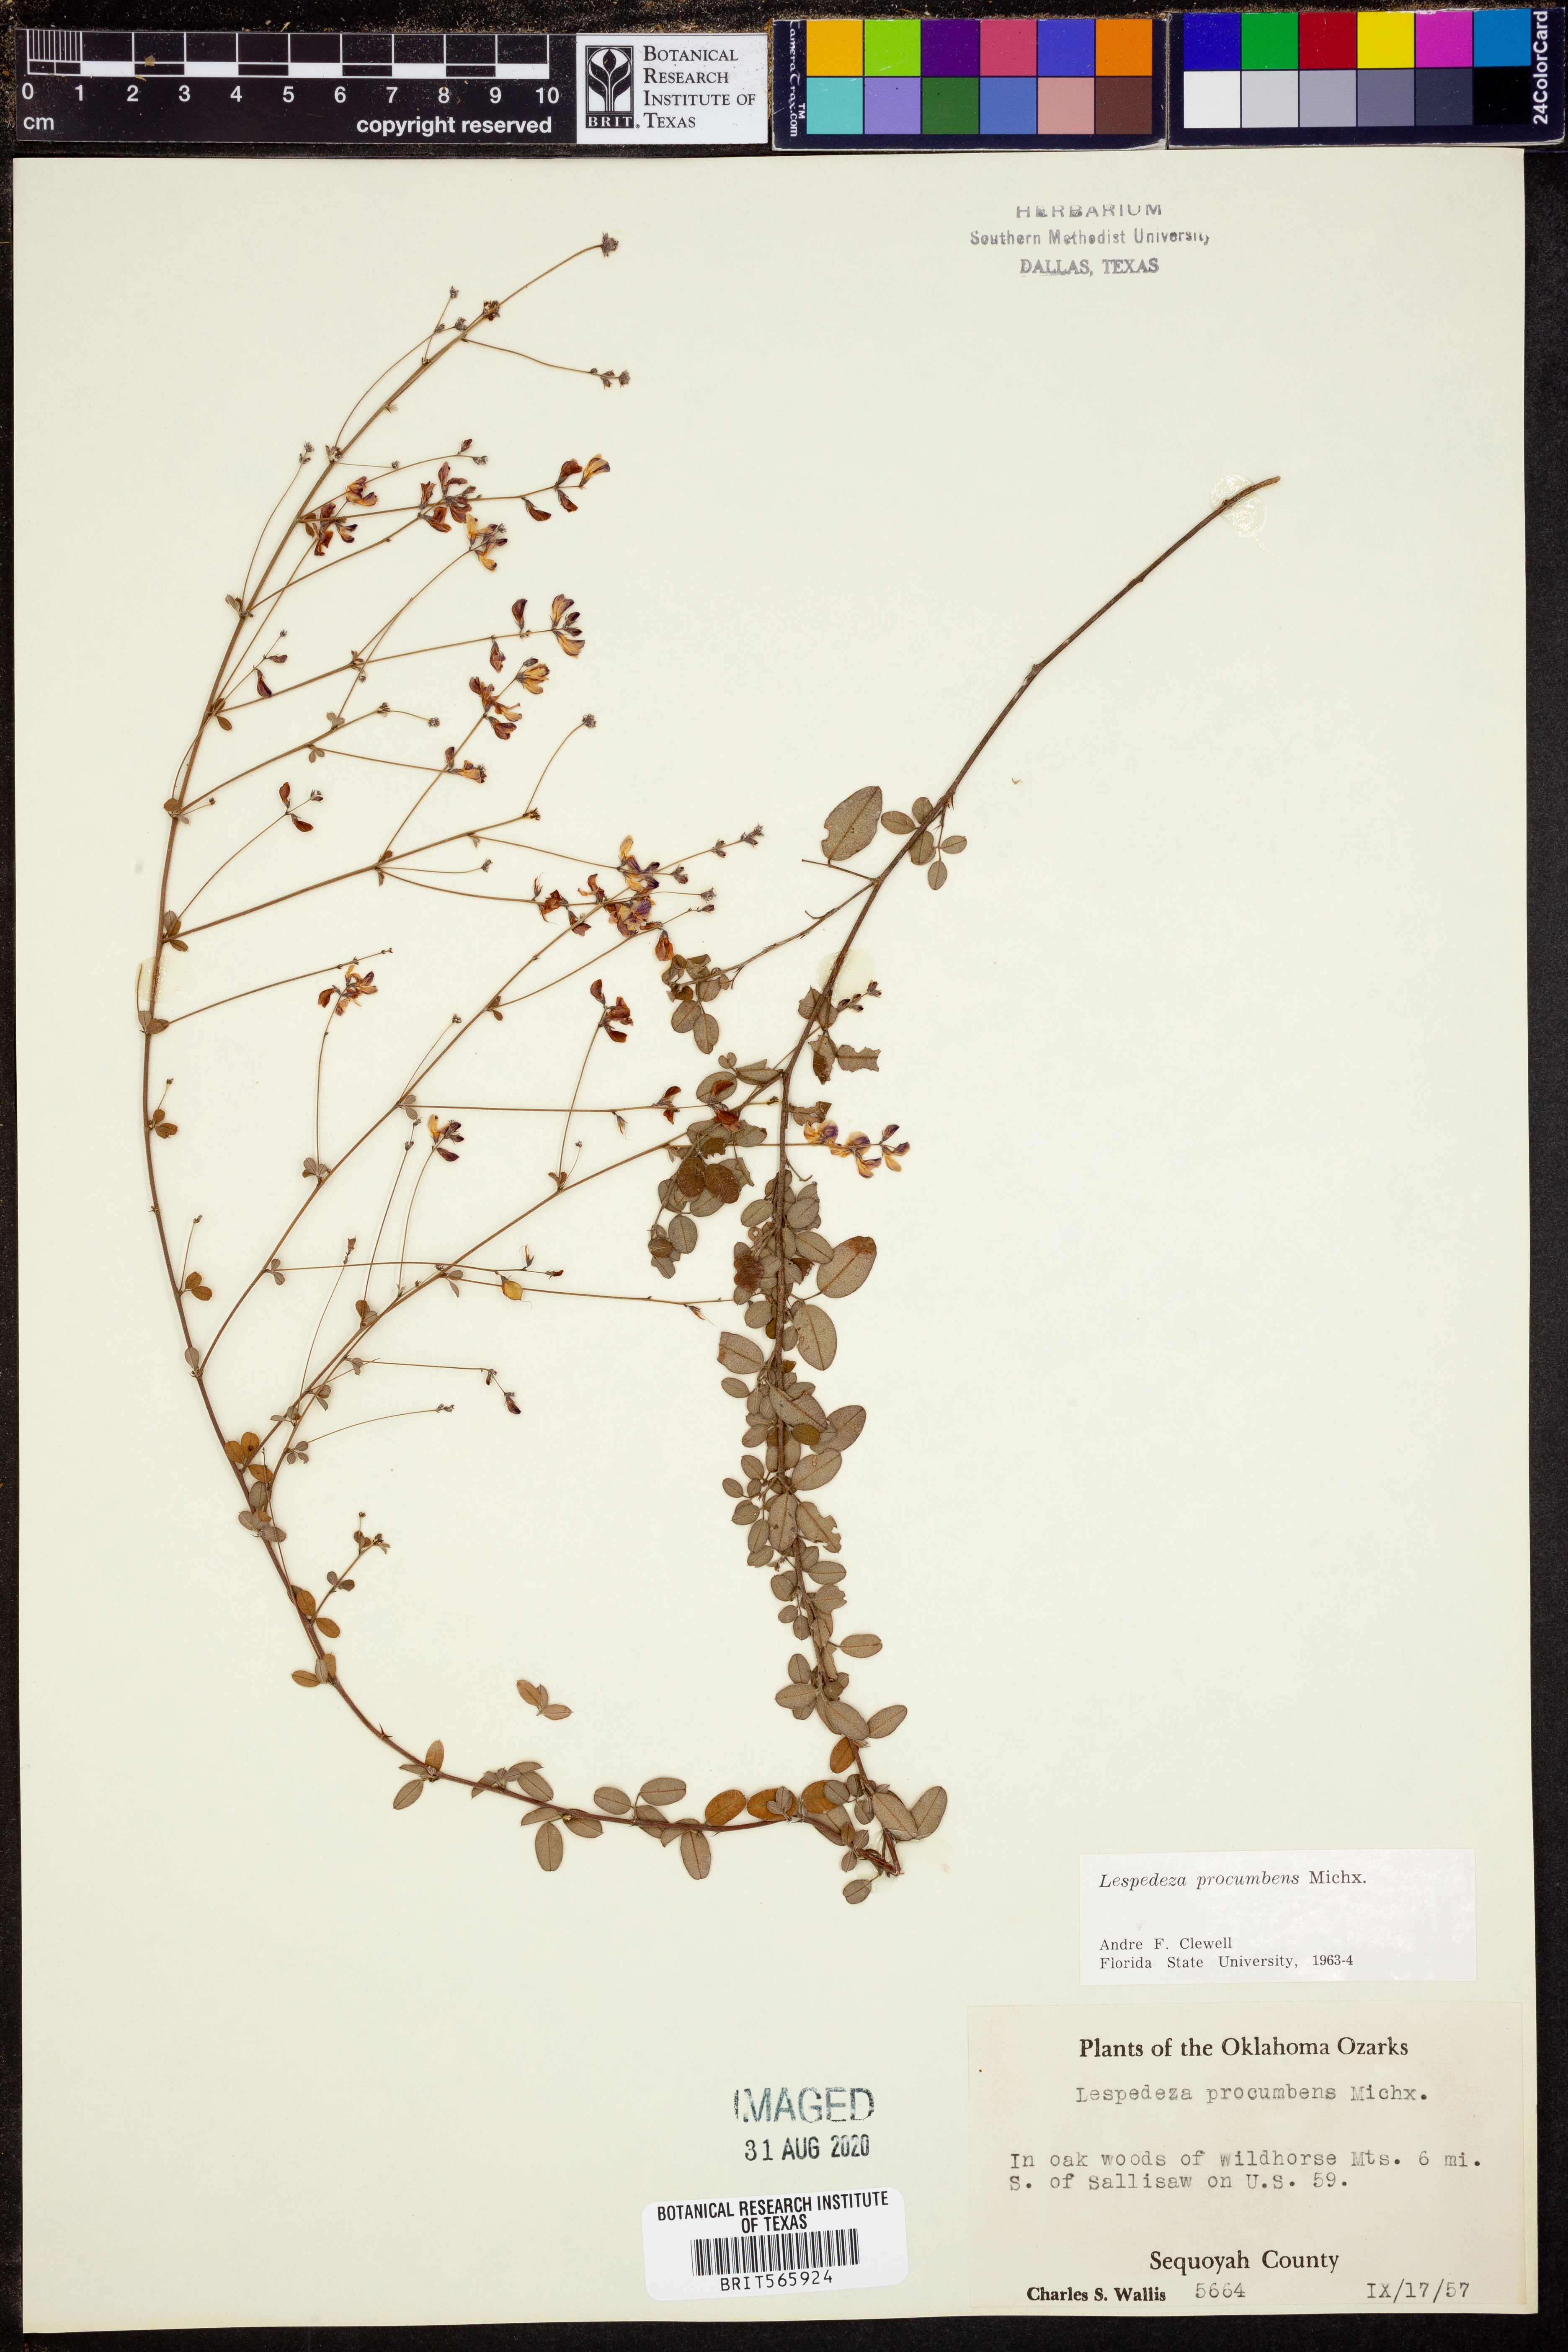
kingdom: Plantae
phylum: Tracheophyta
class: Magnoliopsida
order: Fabales
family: Fabaceae
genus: Lespedeza
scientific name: Lespedeza procumbens
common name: Downy trailing bush-clover
